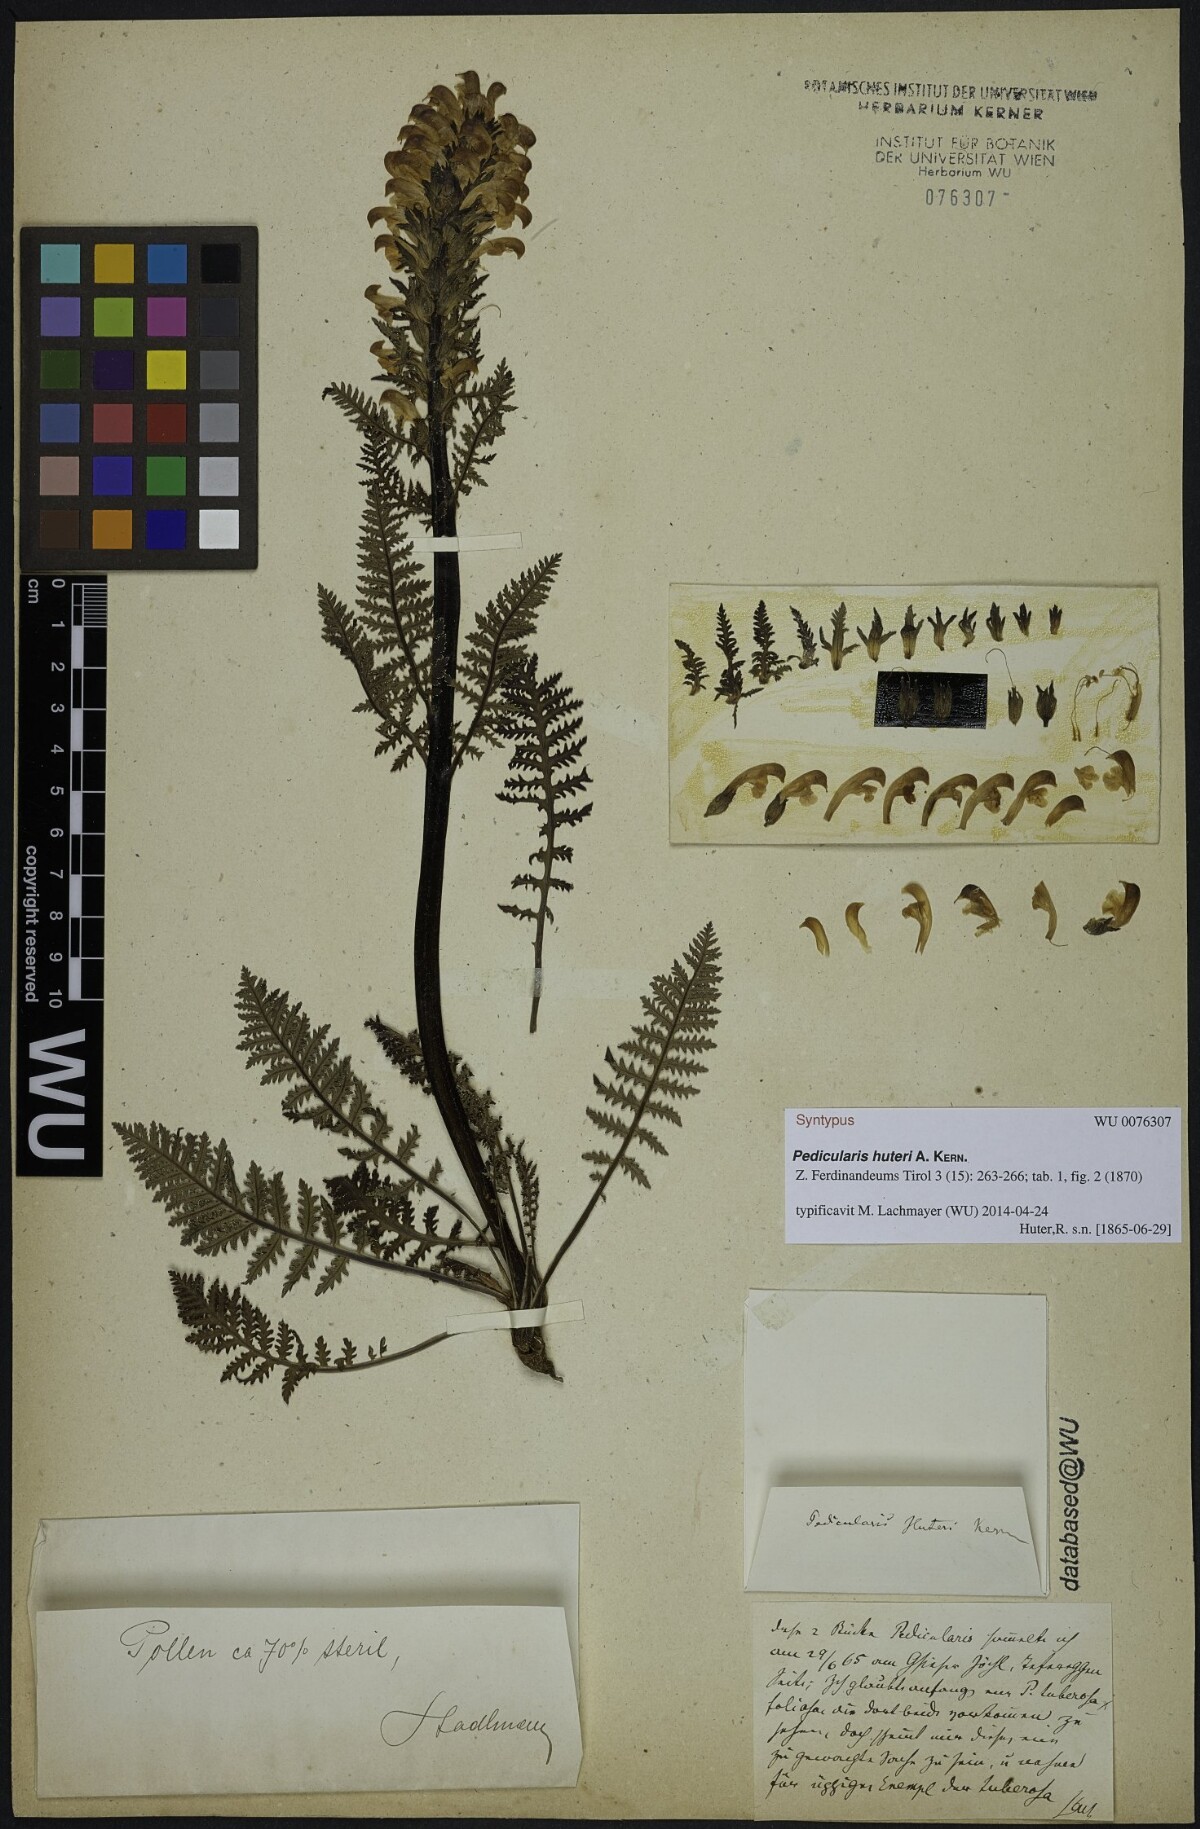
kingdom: Plantae
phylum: Tracheophyta
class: Magnoliopsida
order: Lamiales
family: Scrophulariaceae
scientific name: Scrophulariaceae
